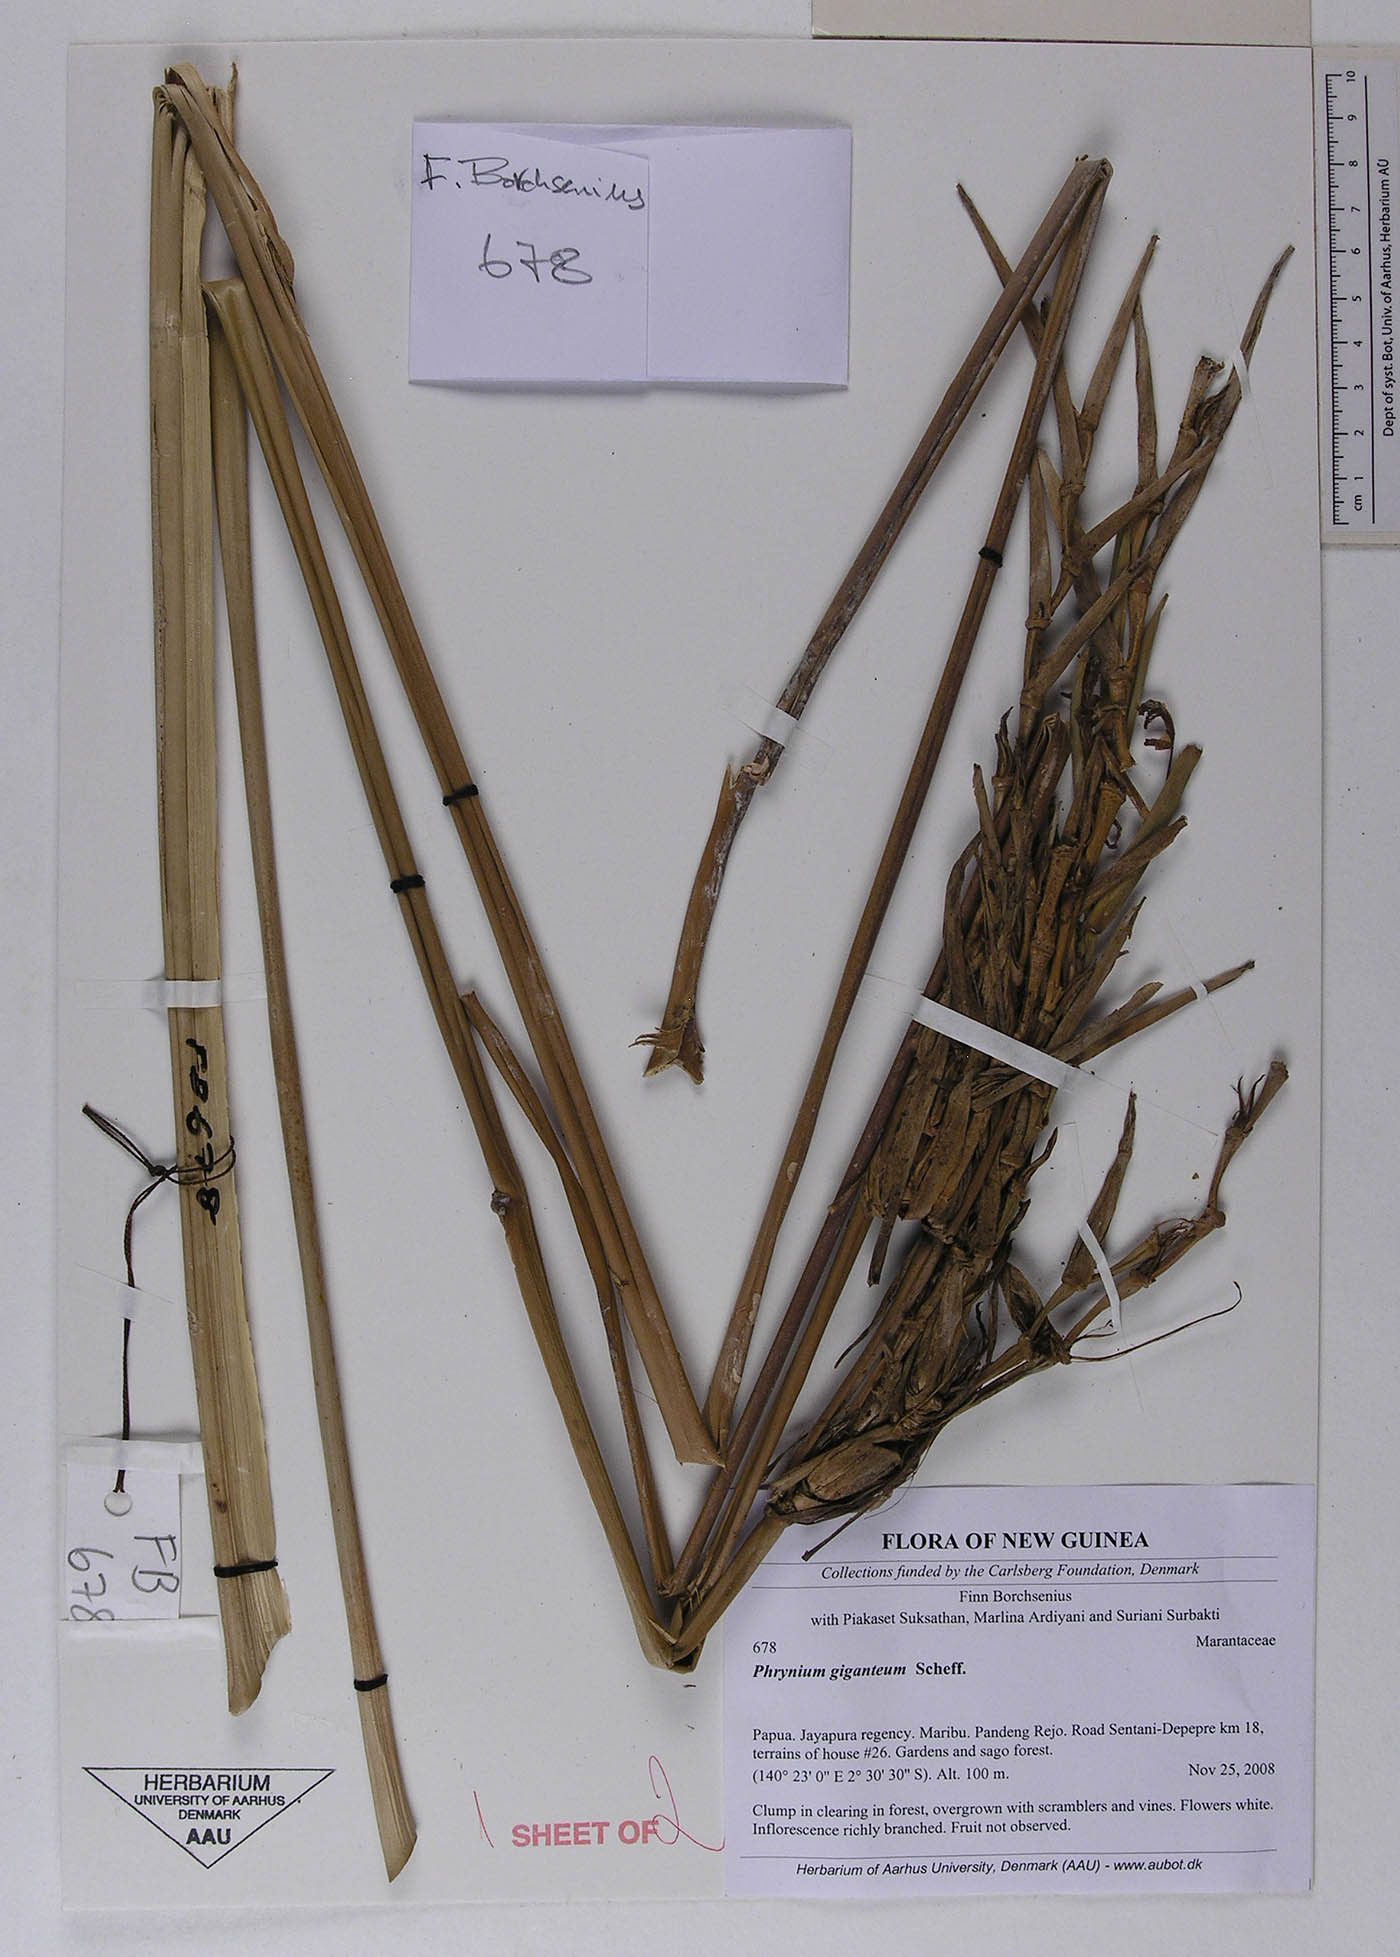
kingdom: Plantae
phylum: Tracheophyta
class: Liliopsida
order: Zingiberales
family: Marantaceae
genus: Phrynium
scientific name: Phrynium giganteum
